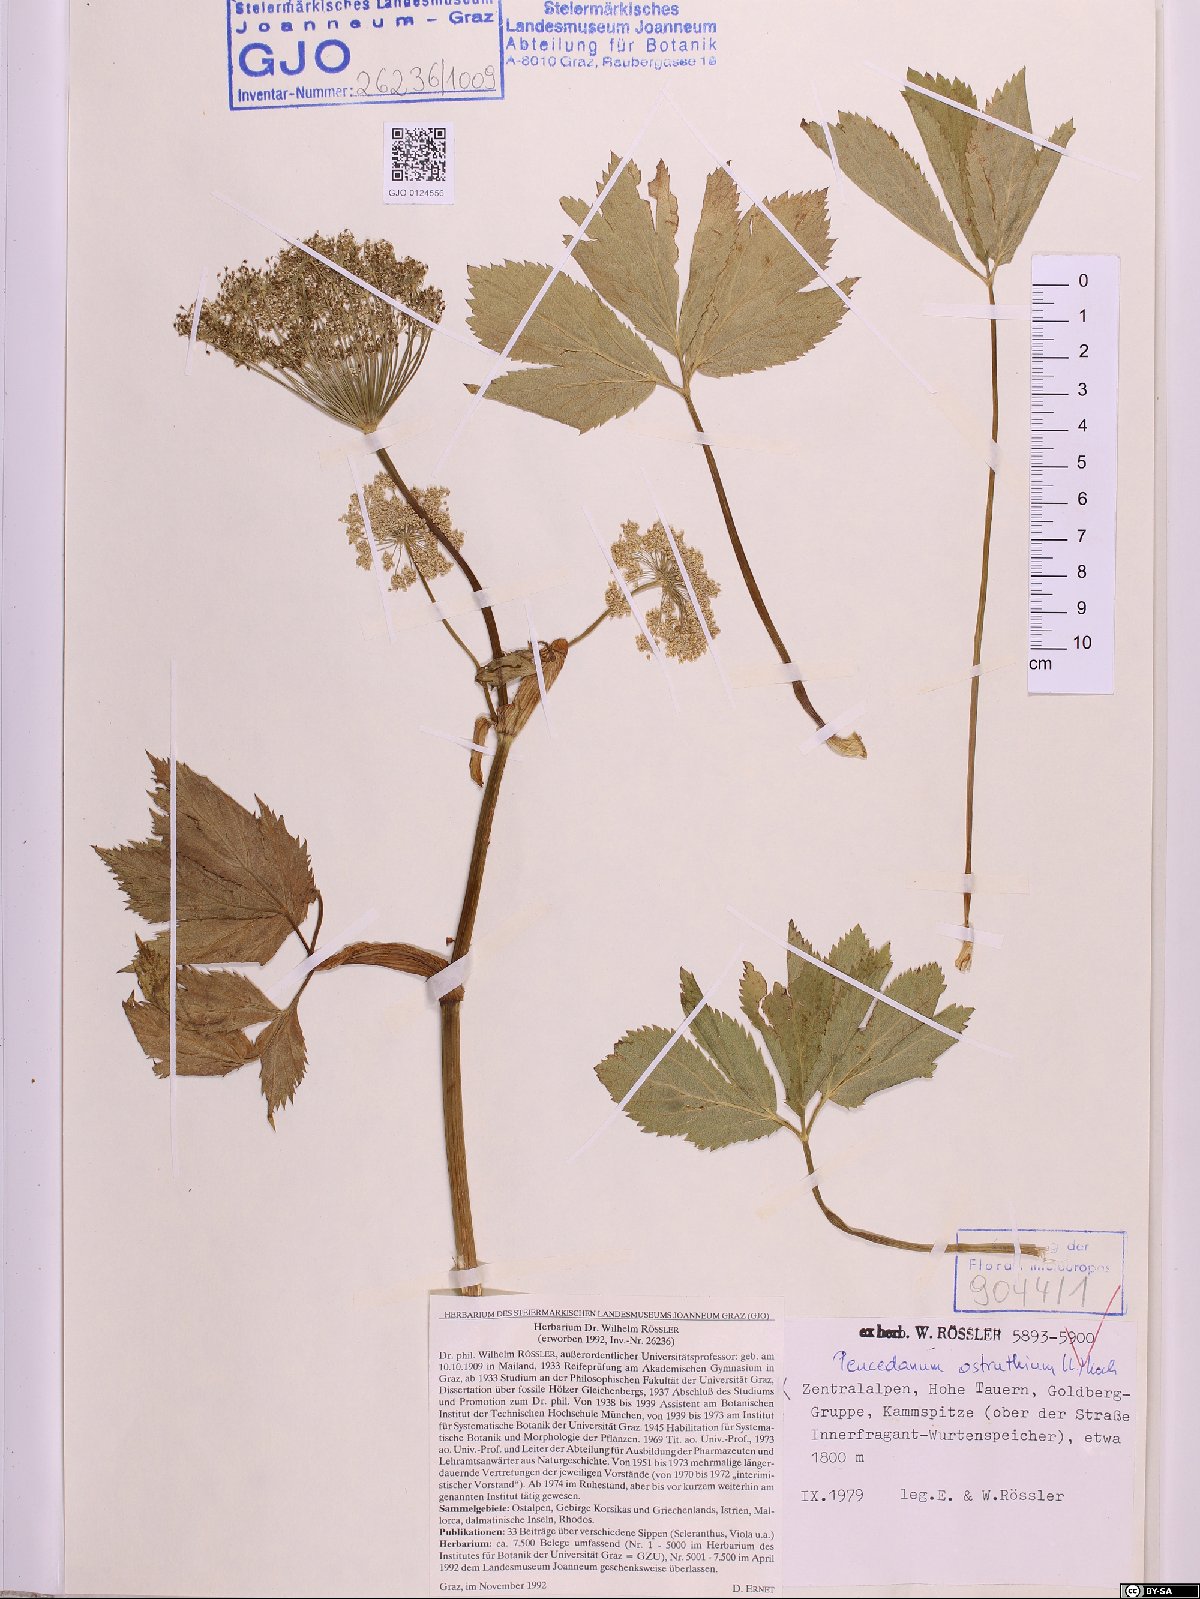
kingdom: Plantae
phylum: Tracheophyta
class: Magnoliopsida
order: Apiales
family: Apiaceae
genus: Imperatoria
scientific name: Imperatoria ostruthium
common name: Masterwort
